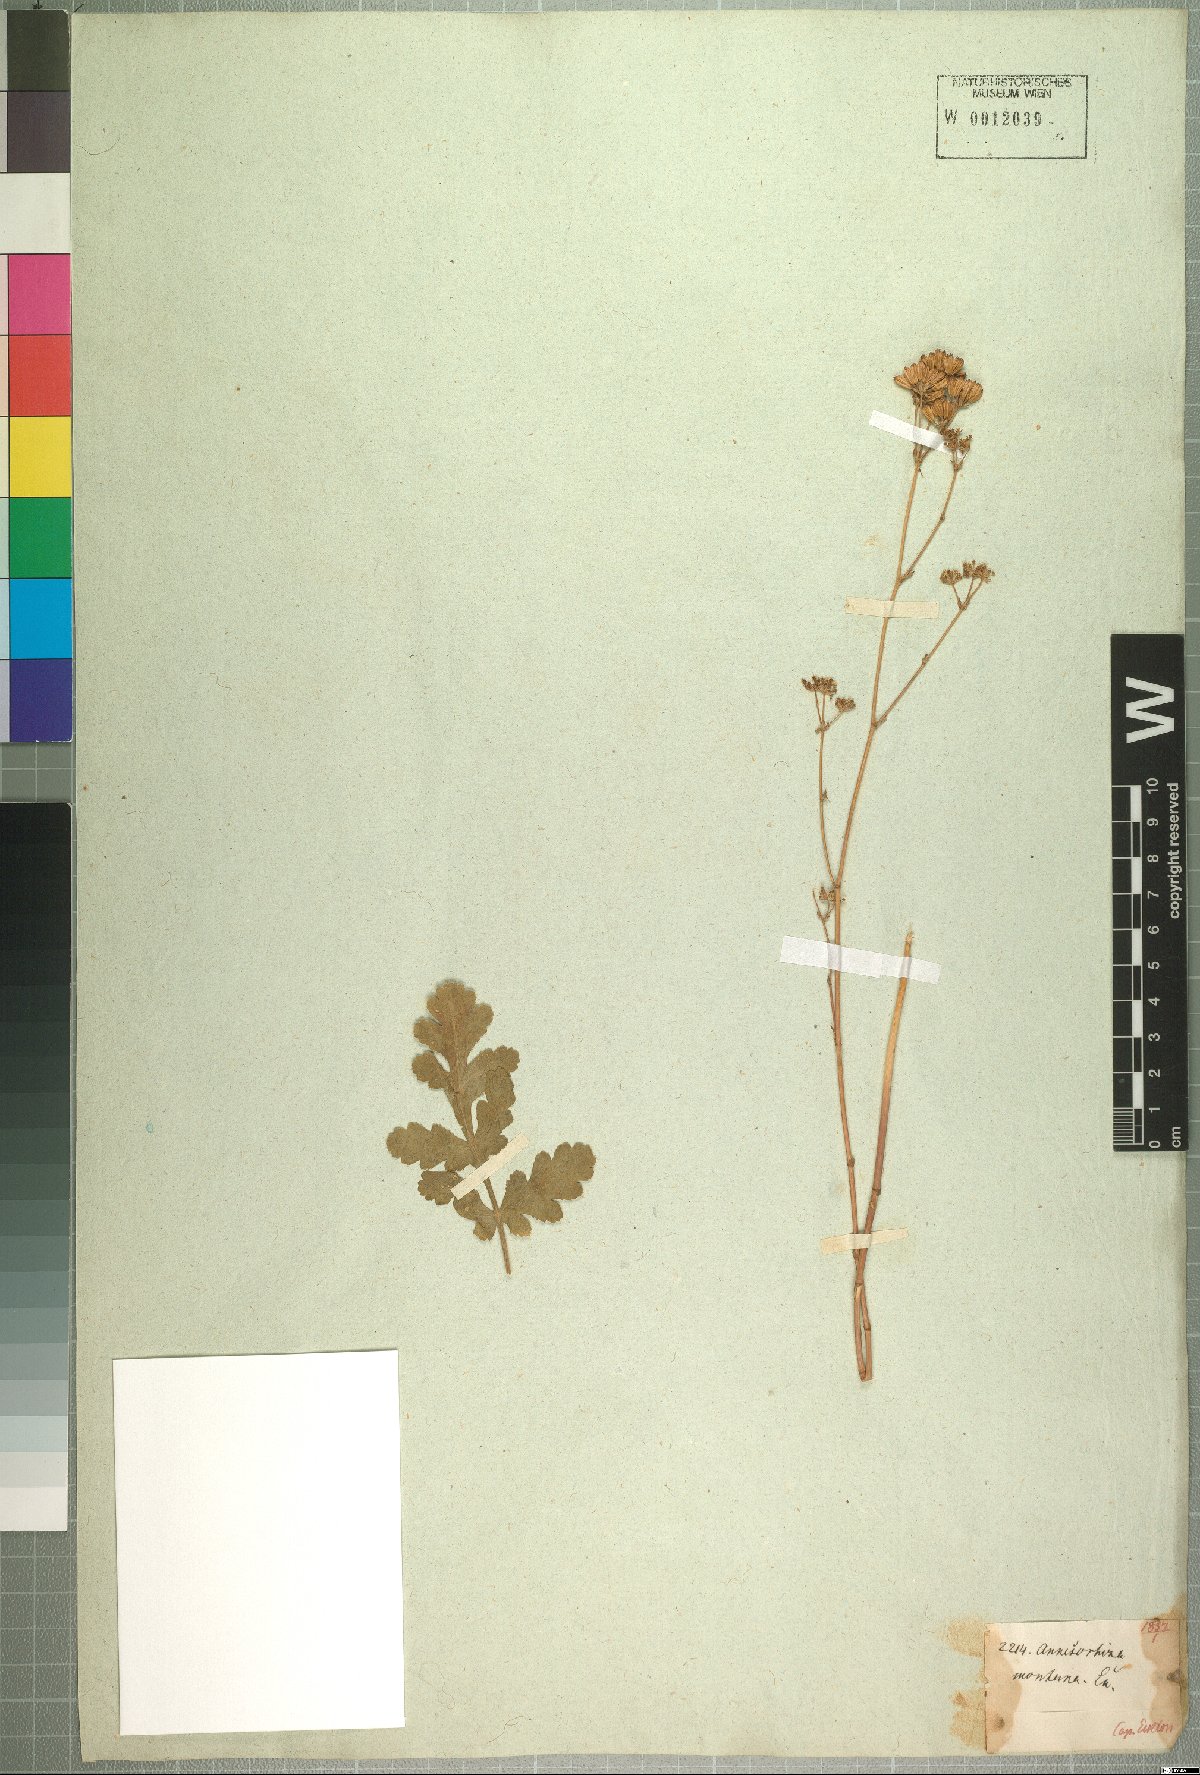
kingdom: Plantae
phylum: Tracheophyta
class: Magnoliopsida
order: Apiales
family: Apiaceae
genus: Annesorhiza
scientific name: Annesorhiza nuda
